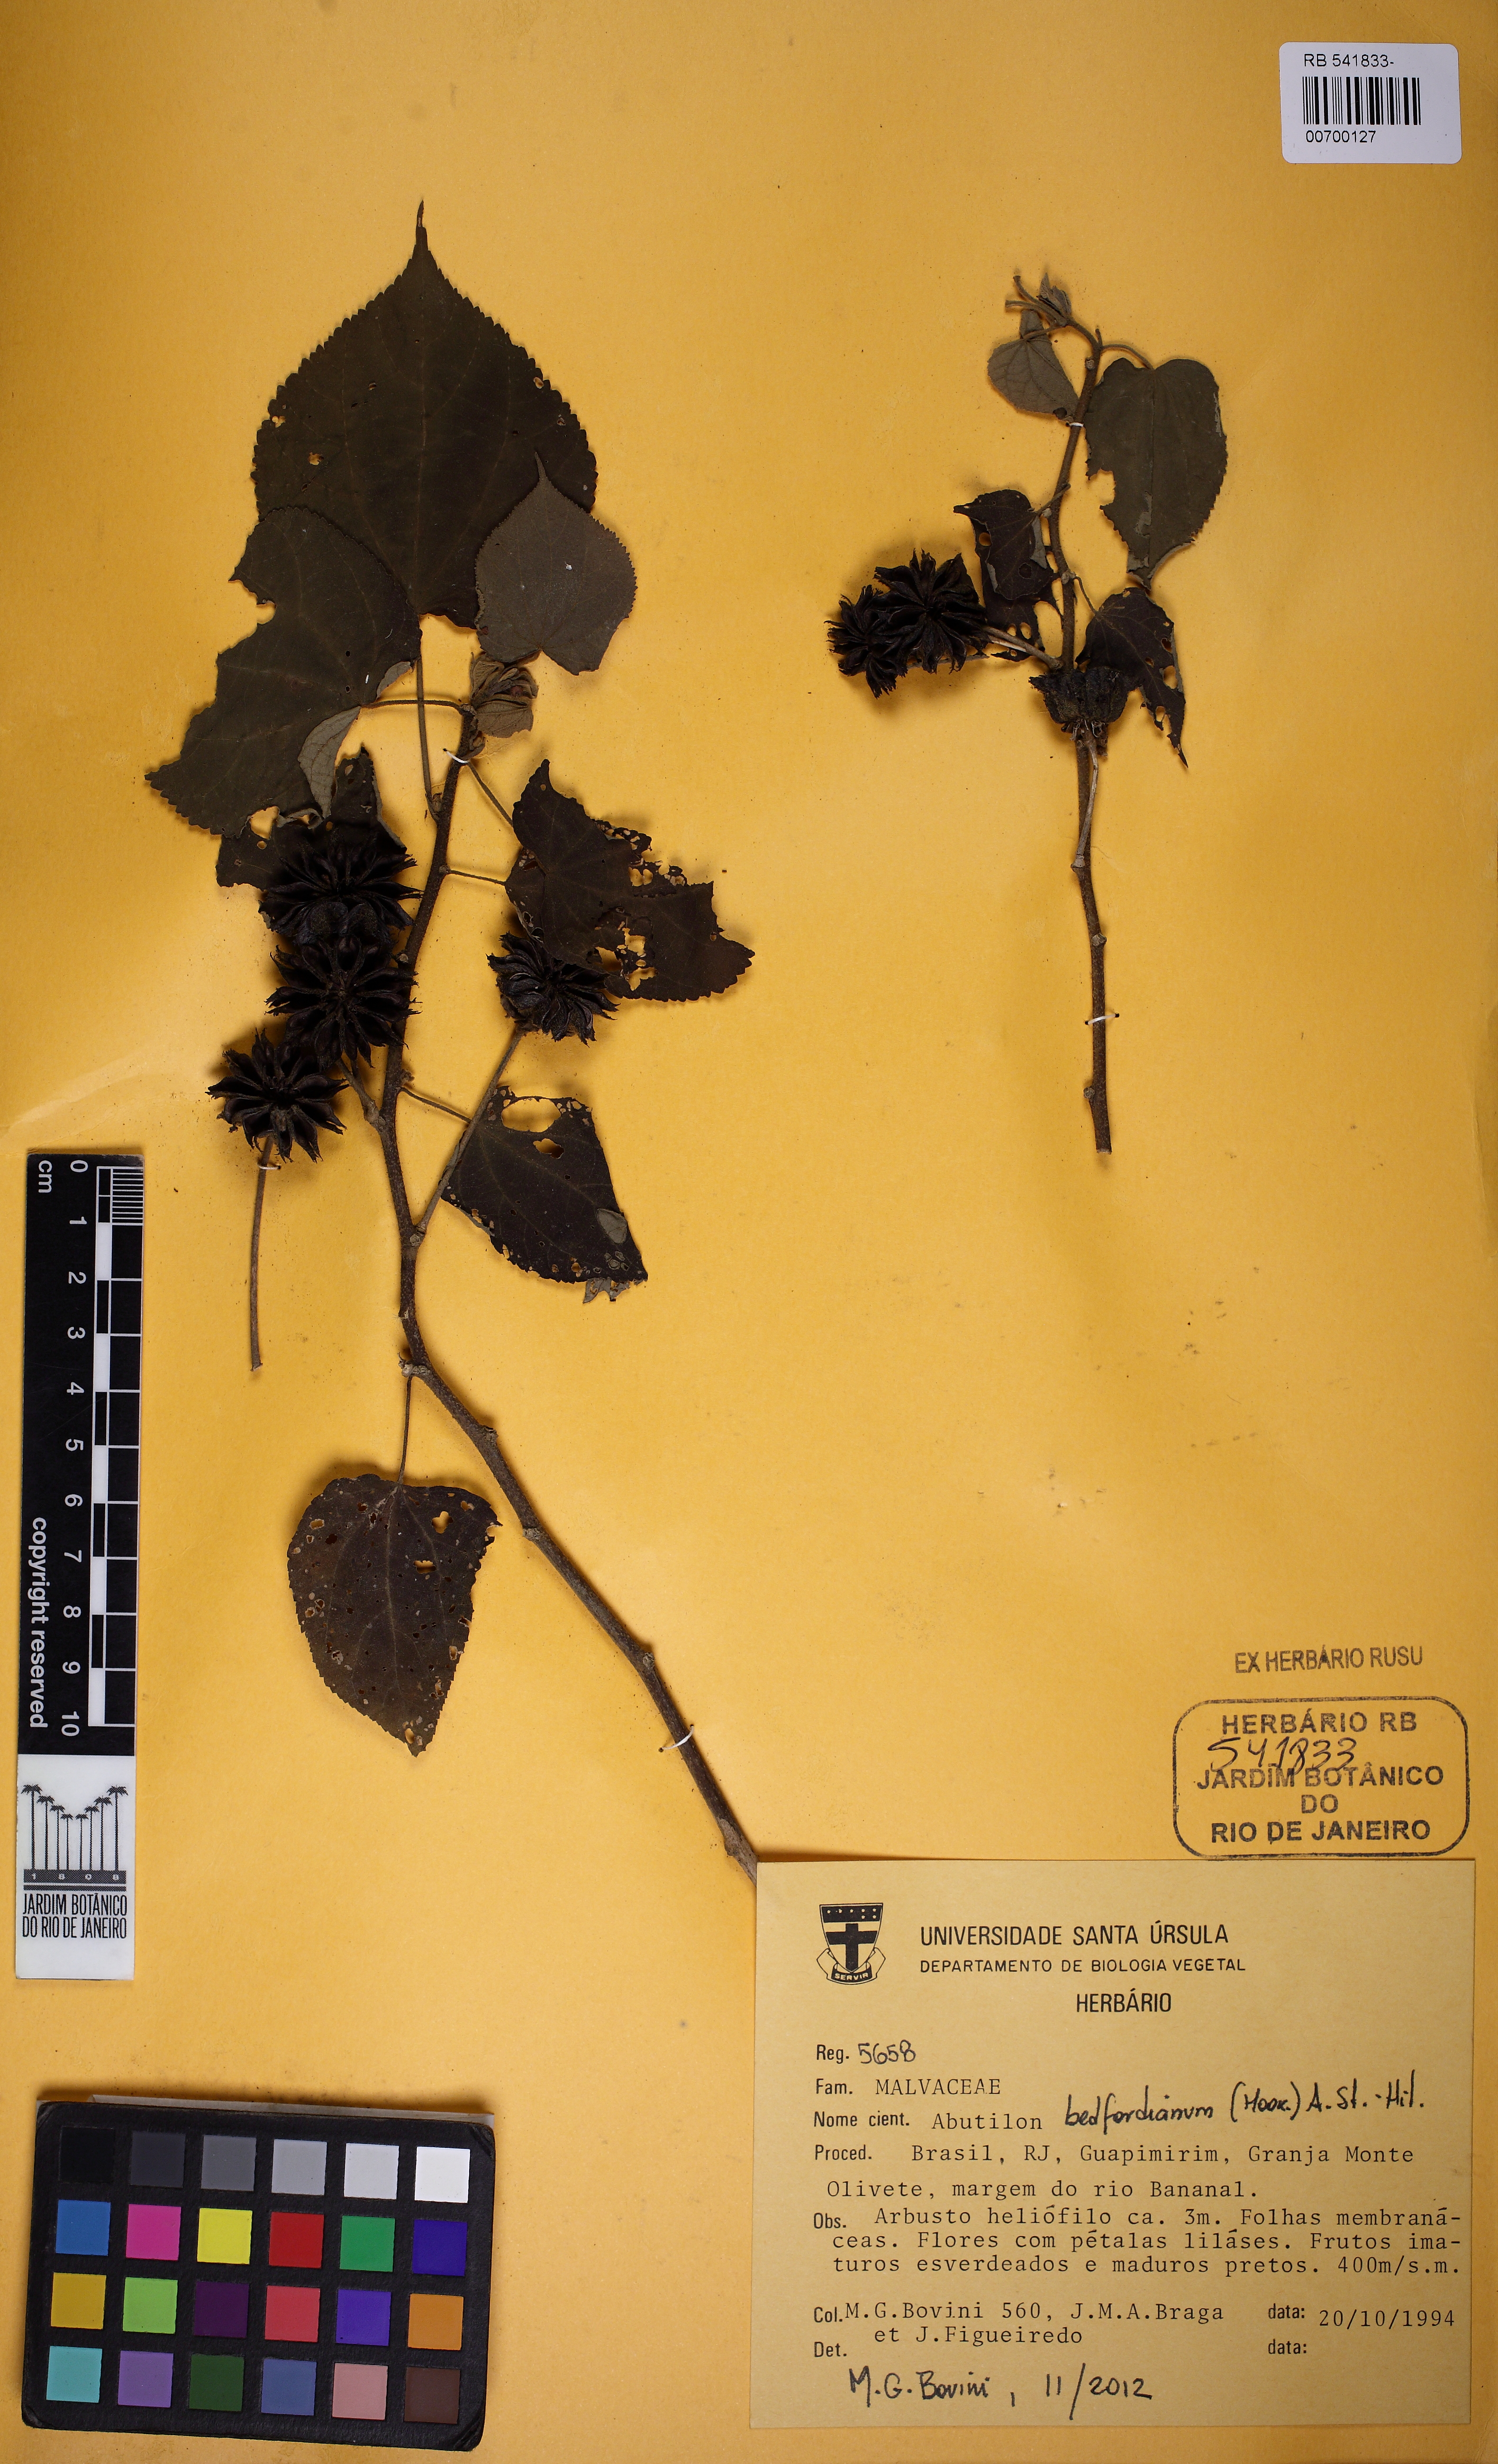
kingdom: Plantae
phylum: Tracheophyta
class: Magnoliopsida
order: Malvales
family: Malvaceae
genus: Callianthe
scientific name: Callianthe bedfordiana
